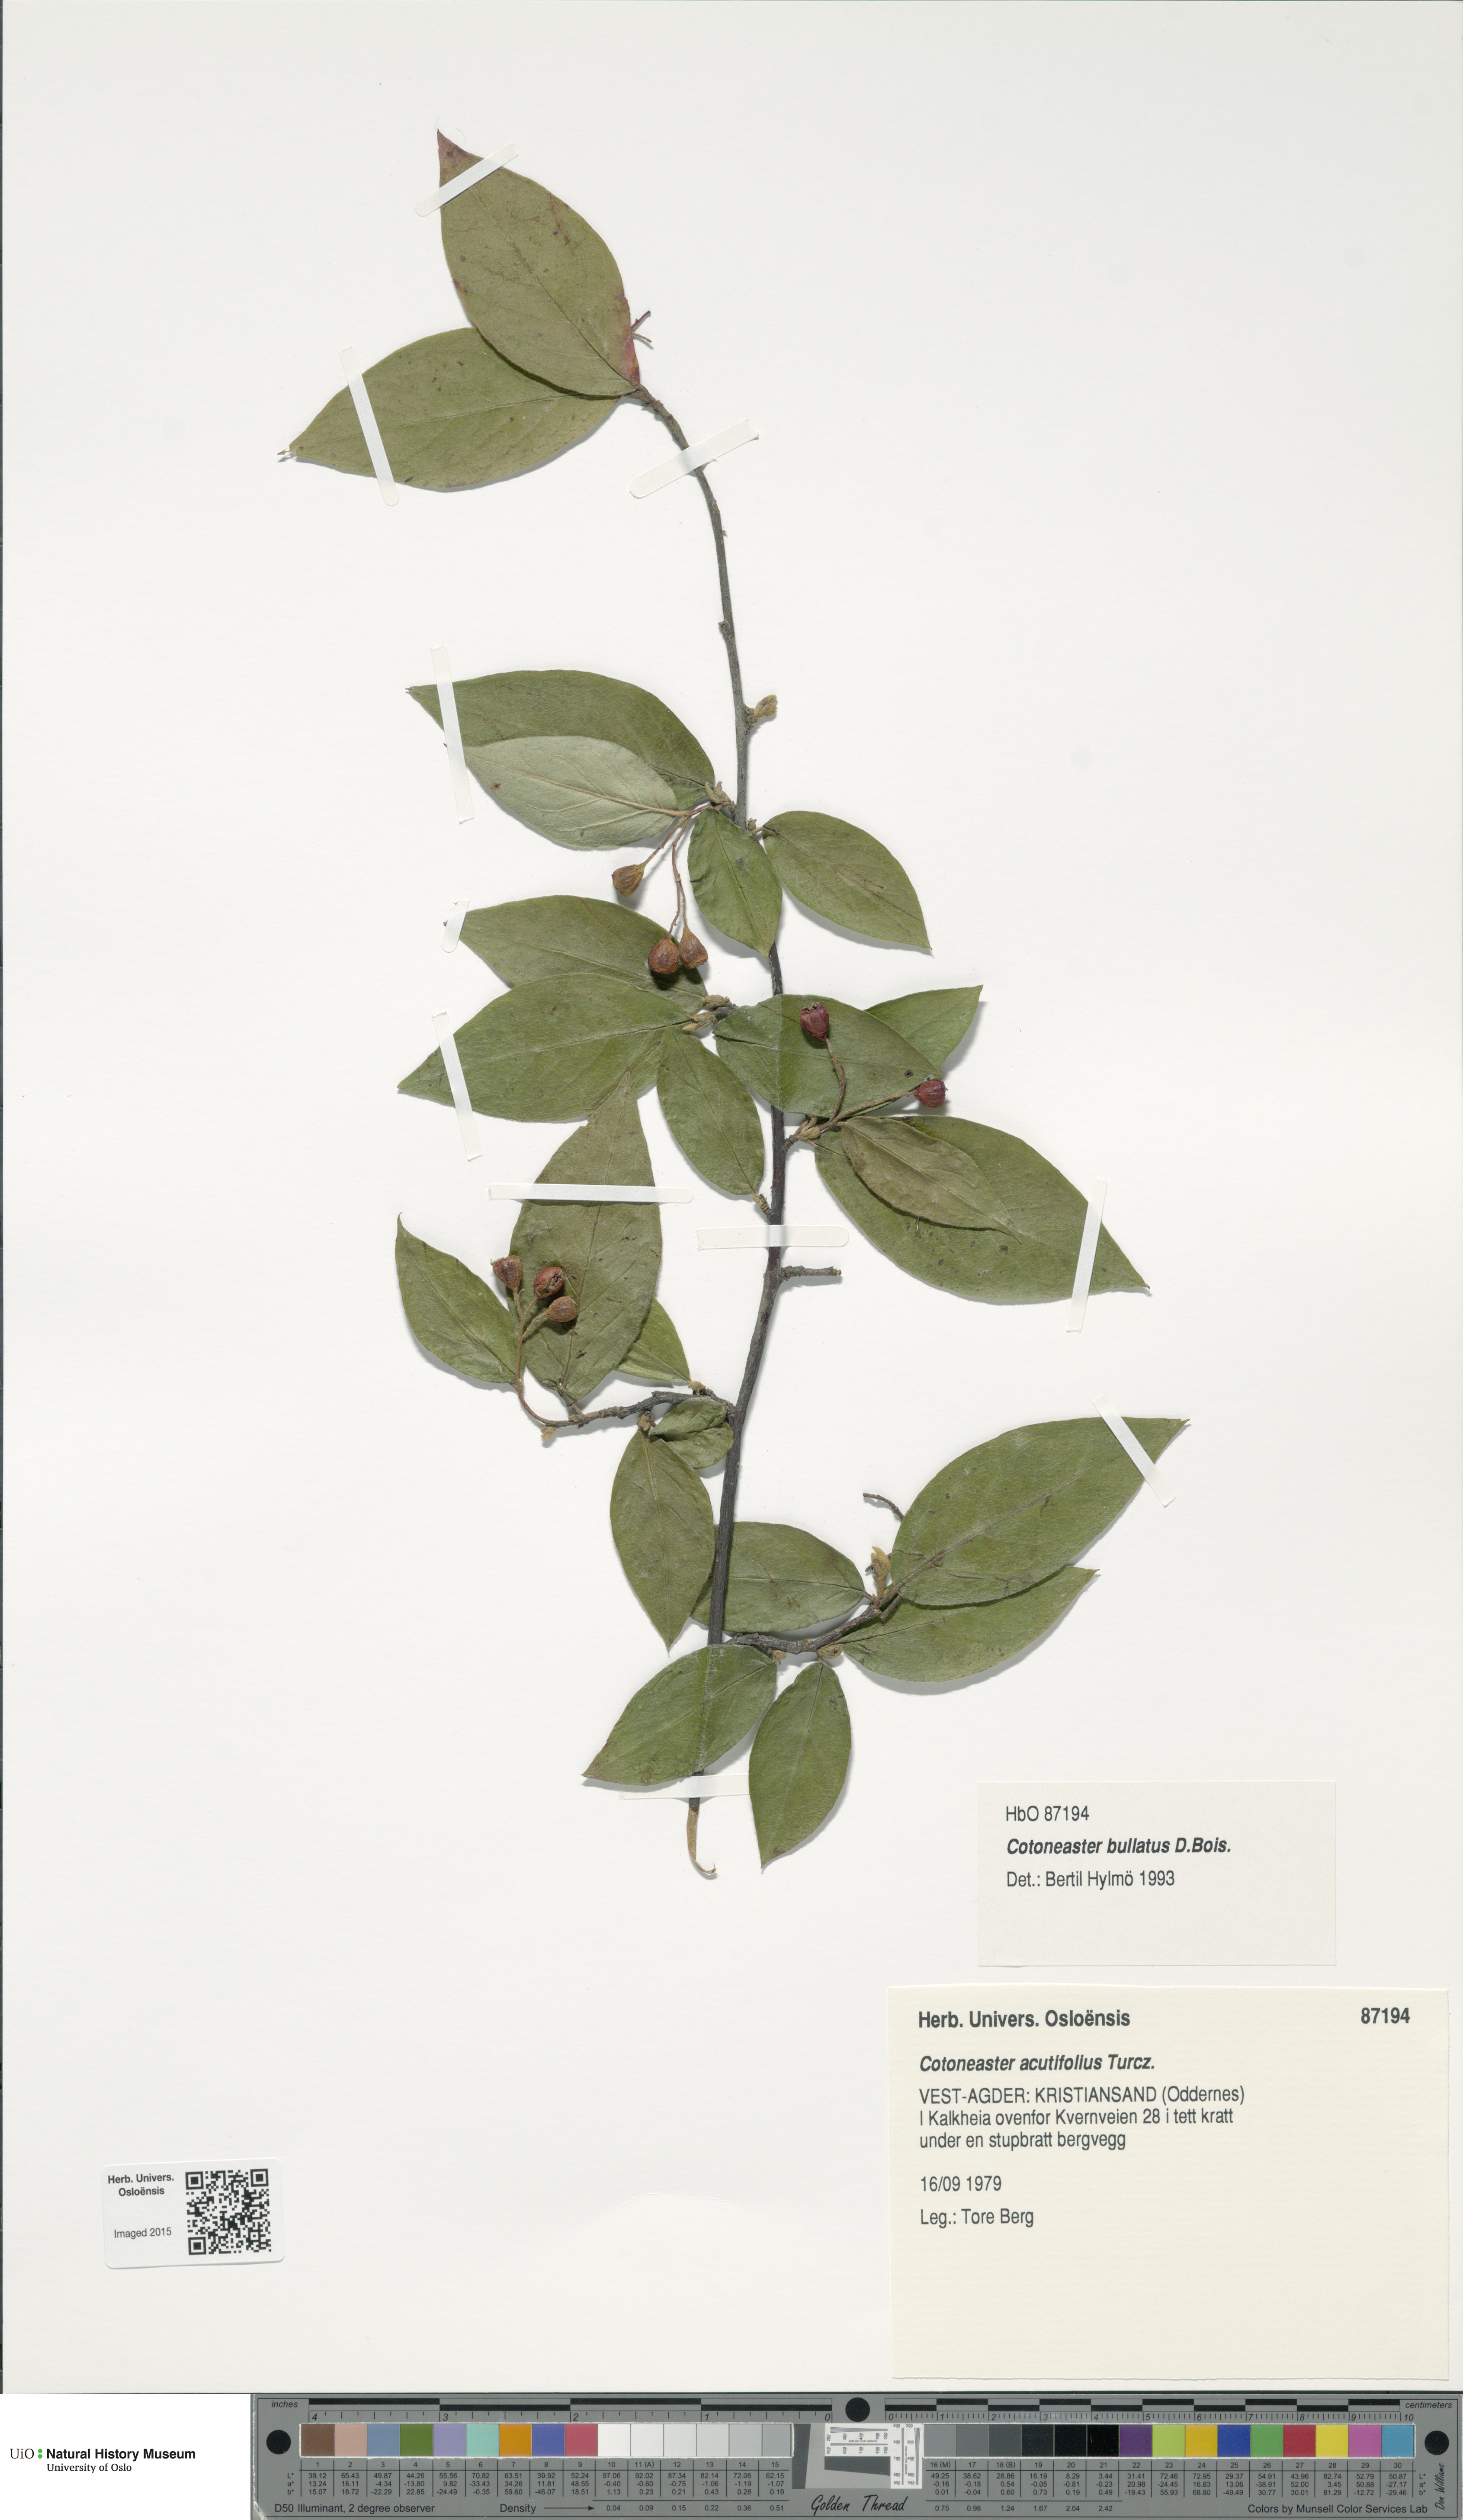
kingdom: Plantae
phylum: Tracheophyta
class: Magnoliopsida
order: Rosales
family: Rosaceae
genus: Cotoneaster
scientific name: Cotoneaster bullatus
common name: Hollyberry cotoneaster
